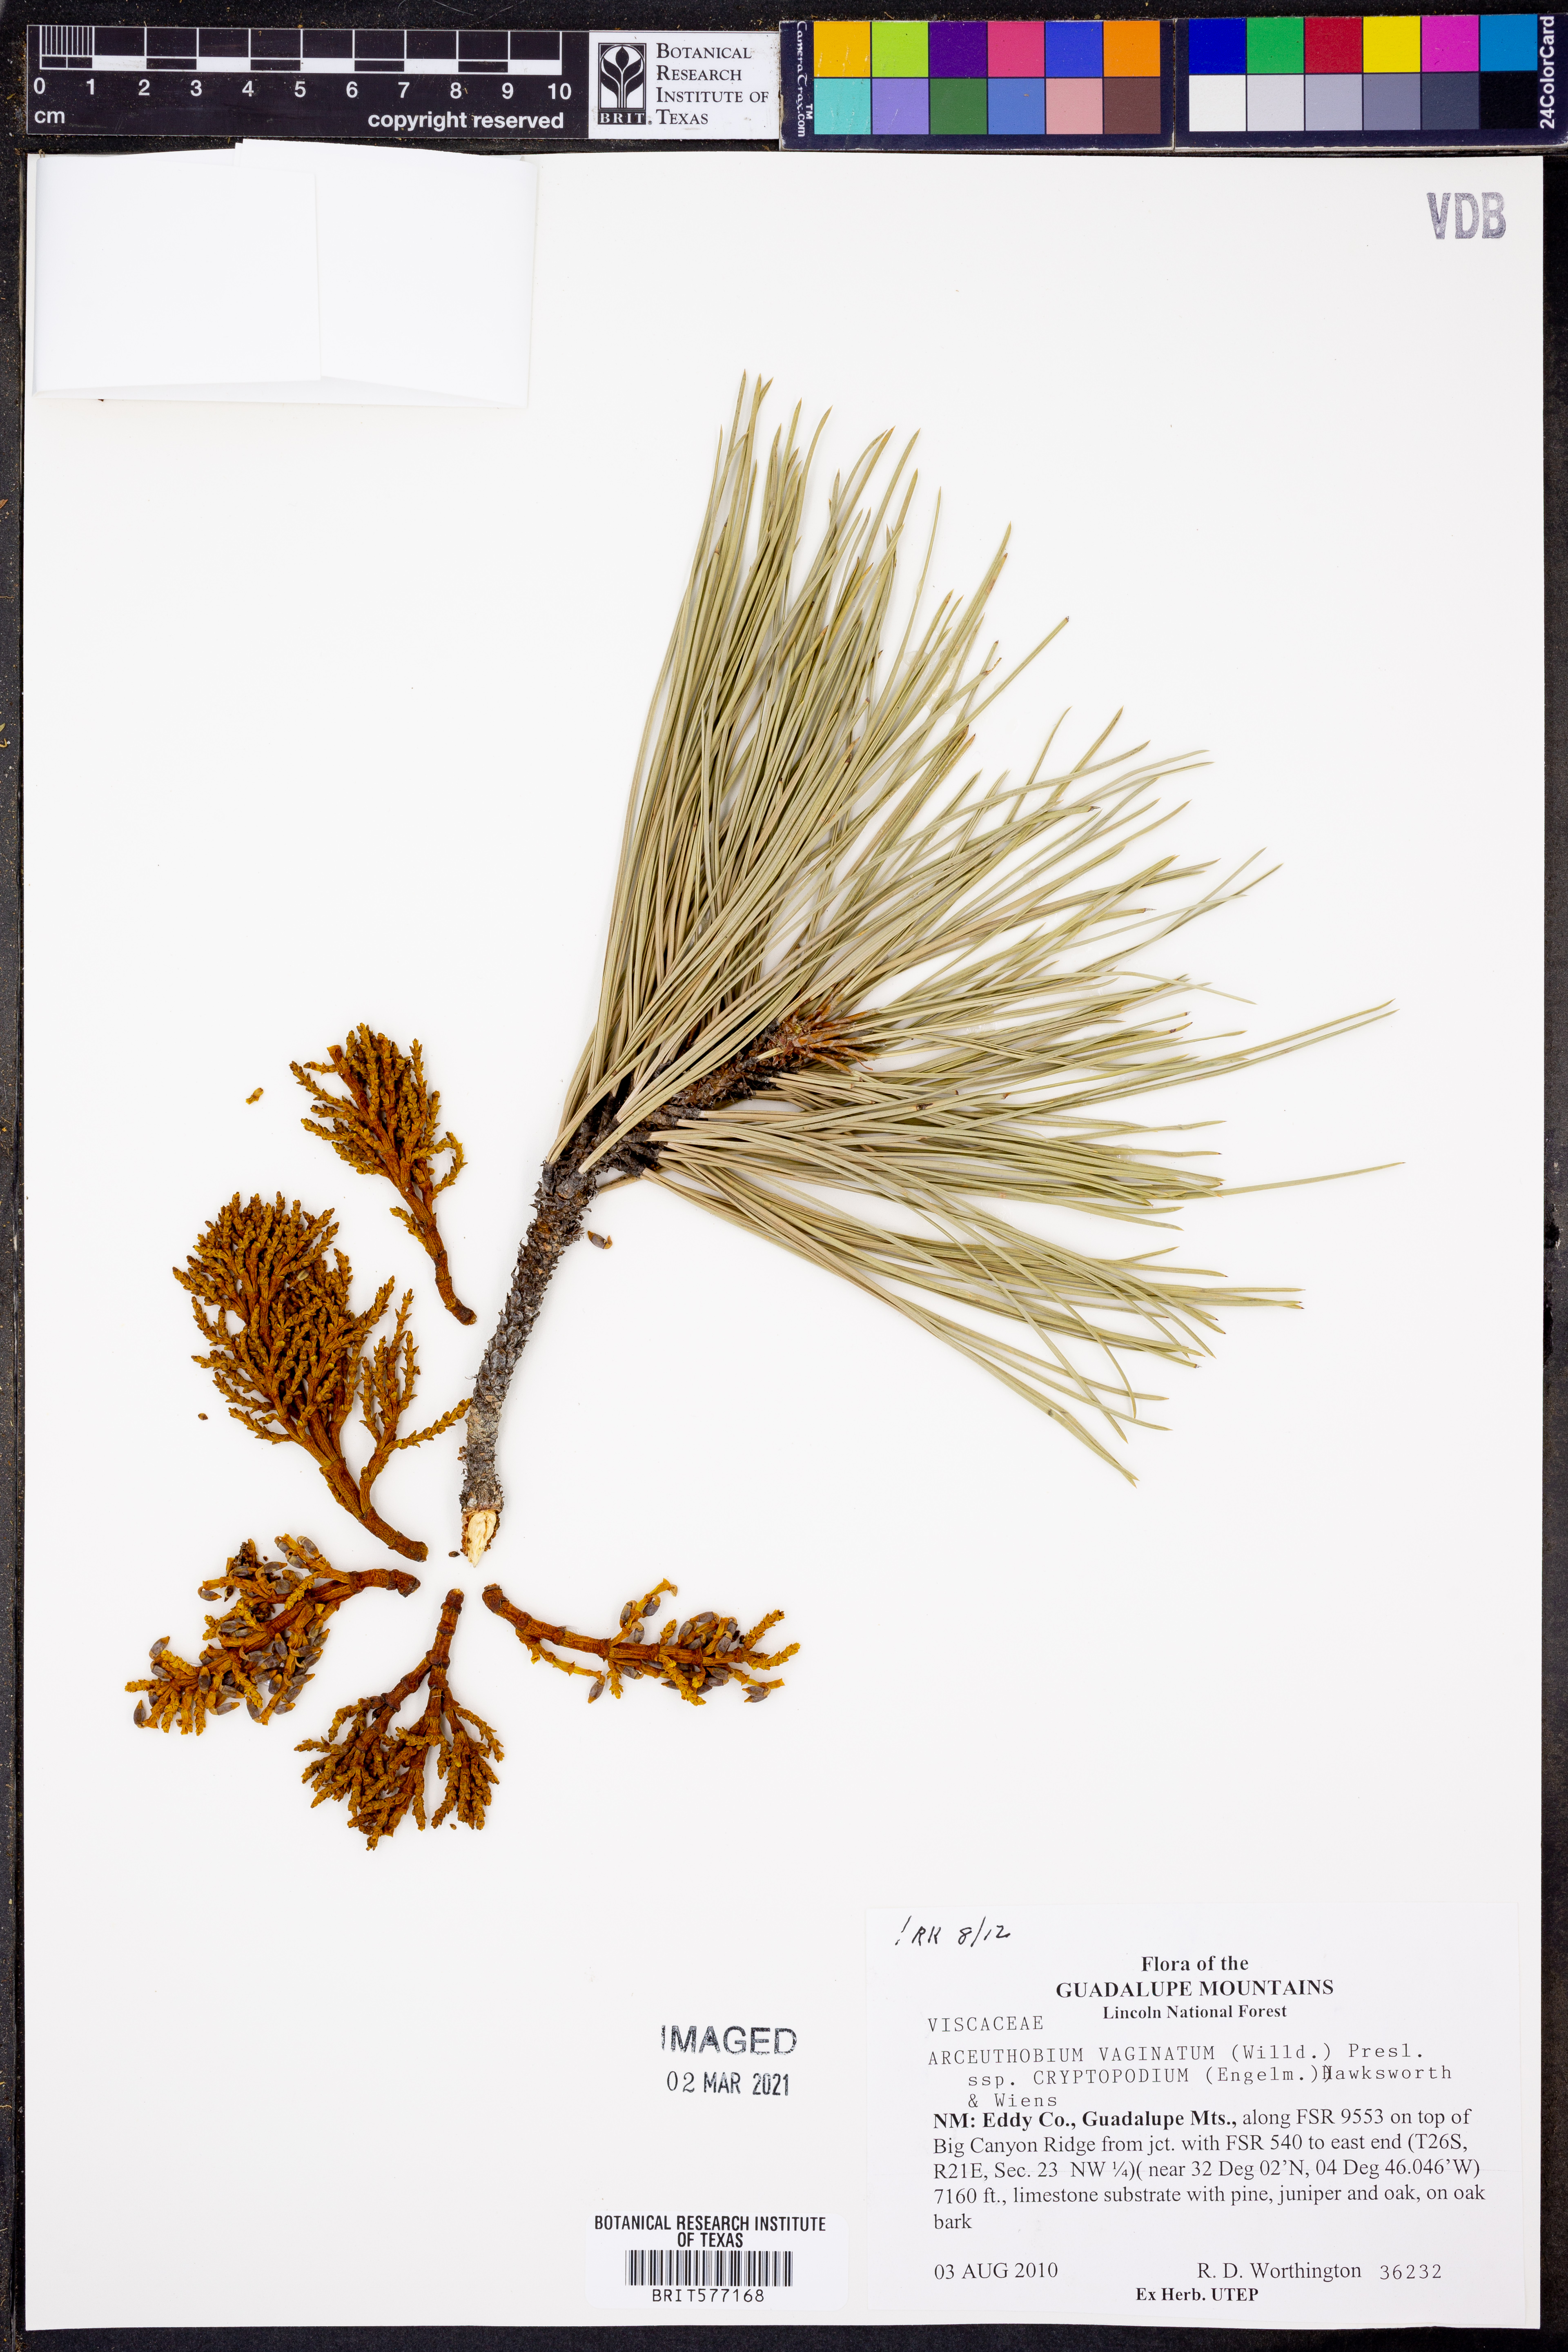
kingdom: Plantae
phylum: Tracheophyta
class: Magnoliopsida
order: Santalales
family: Viscaceae
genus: Arceuthobium
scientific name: Arceuthobium vaginatum
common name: Southwestern dwarf-mistletoe
